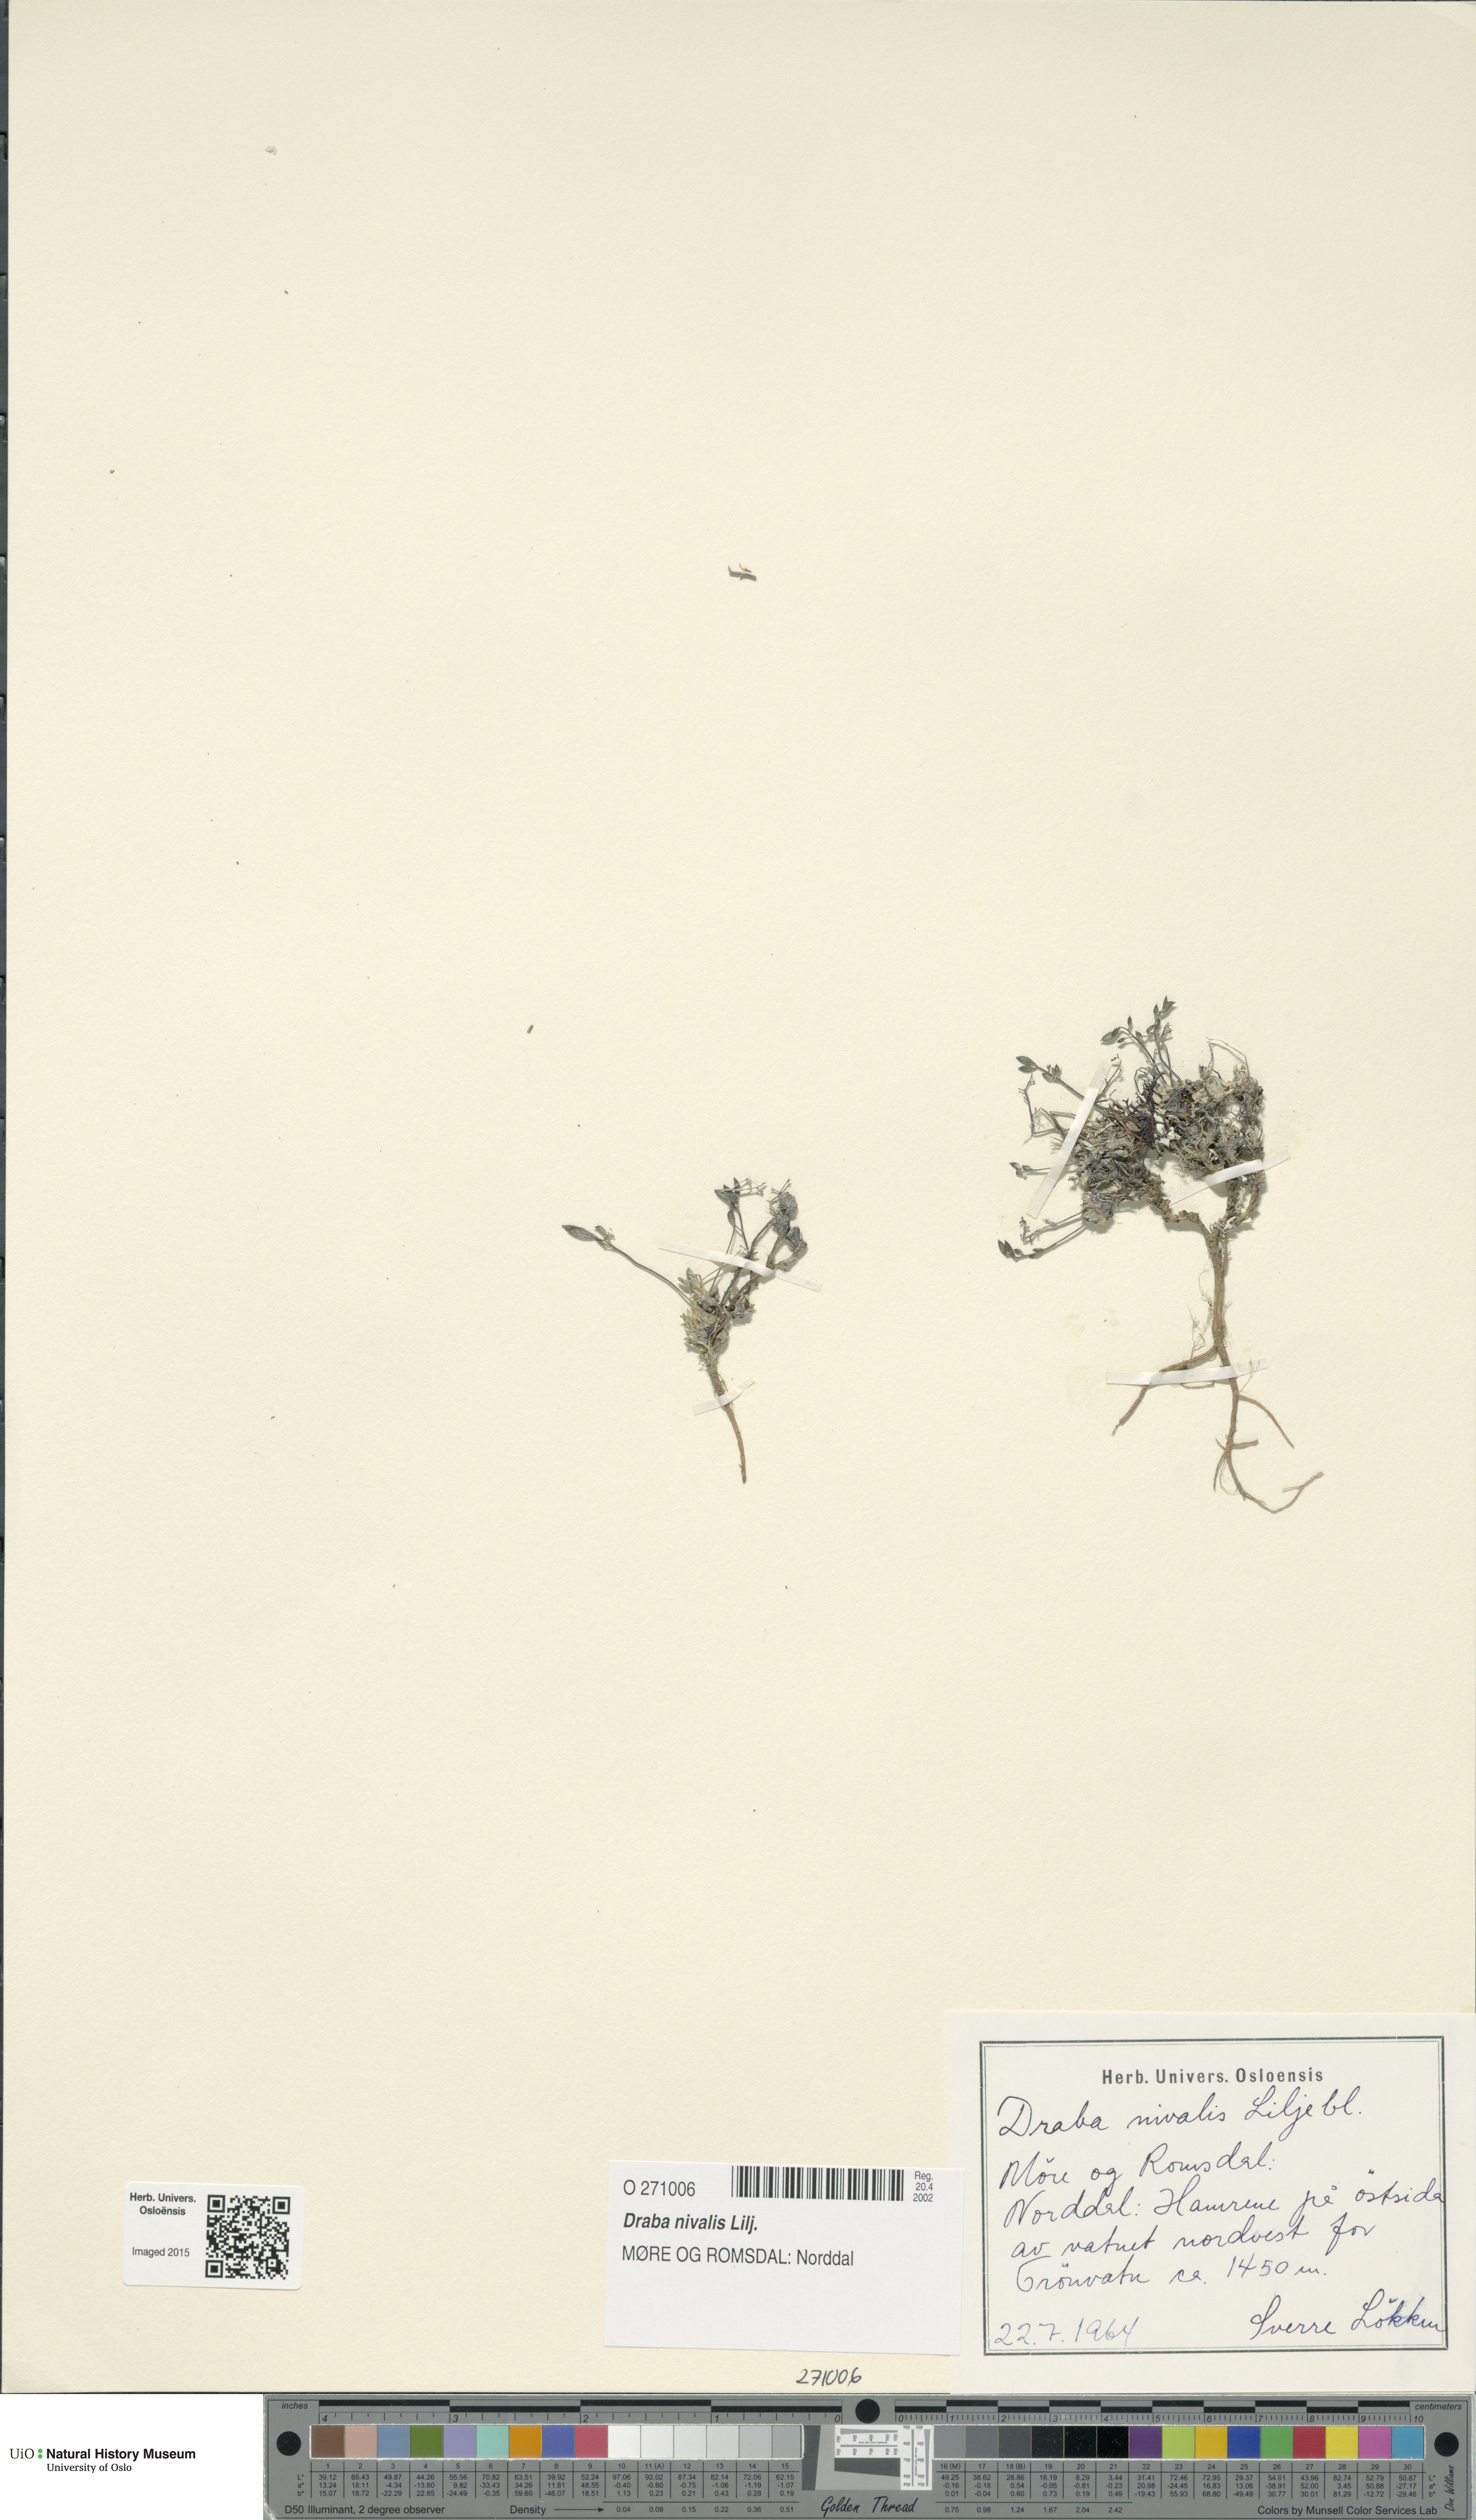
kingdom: Plantae
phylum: Tracheophyta
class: Magnoliopsida
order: Brassicales
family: Brassicaceae
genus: Draba
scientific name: Draba nivalis
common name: Snow draba
